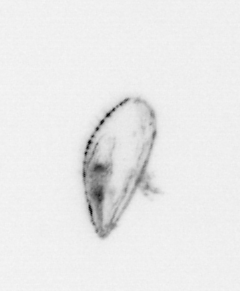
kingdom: Animalia
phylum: Mollusca
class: Bivalvia
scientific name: Bivalvia
